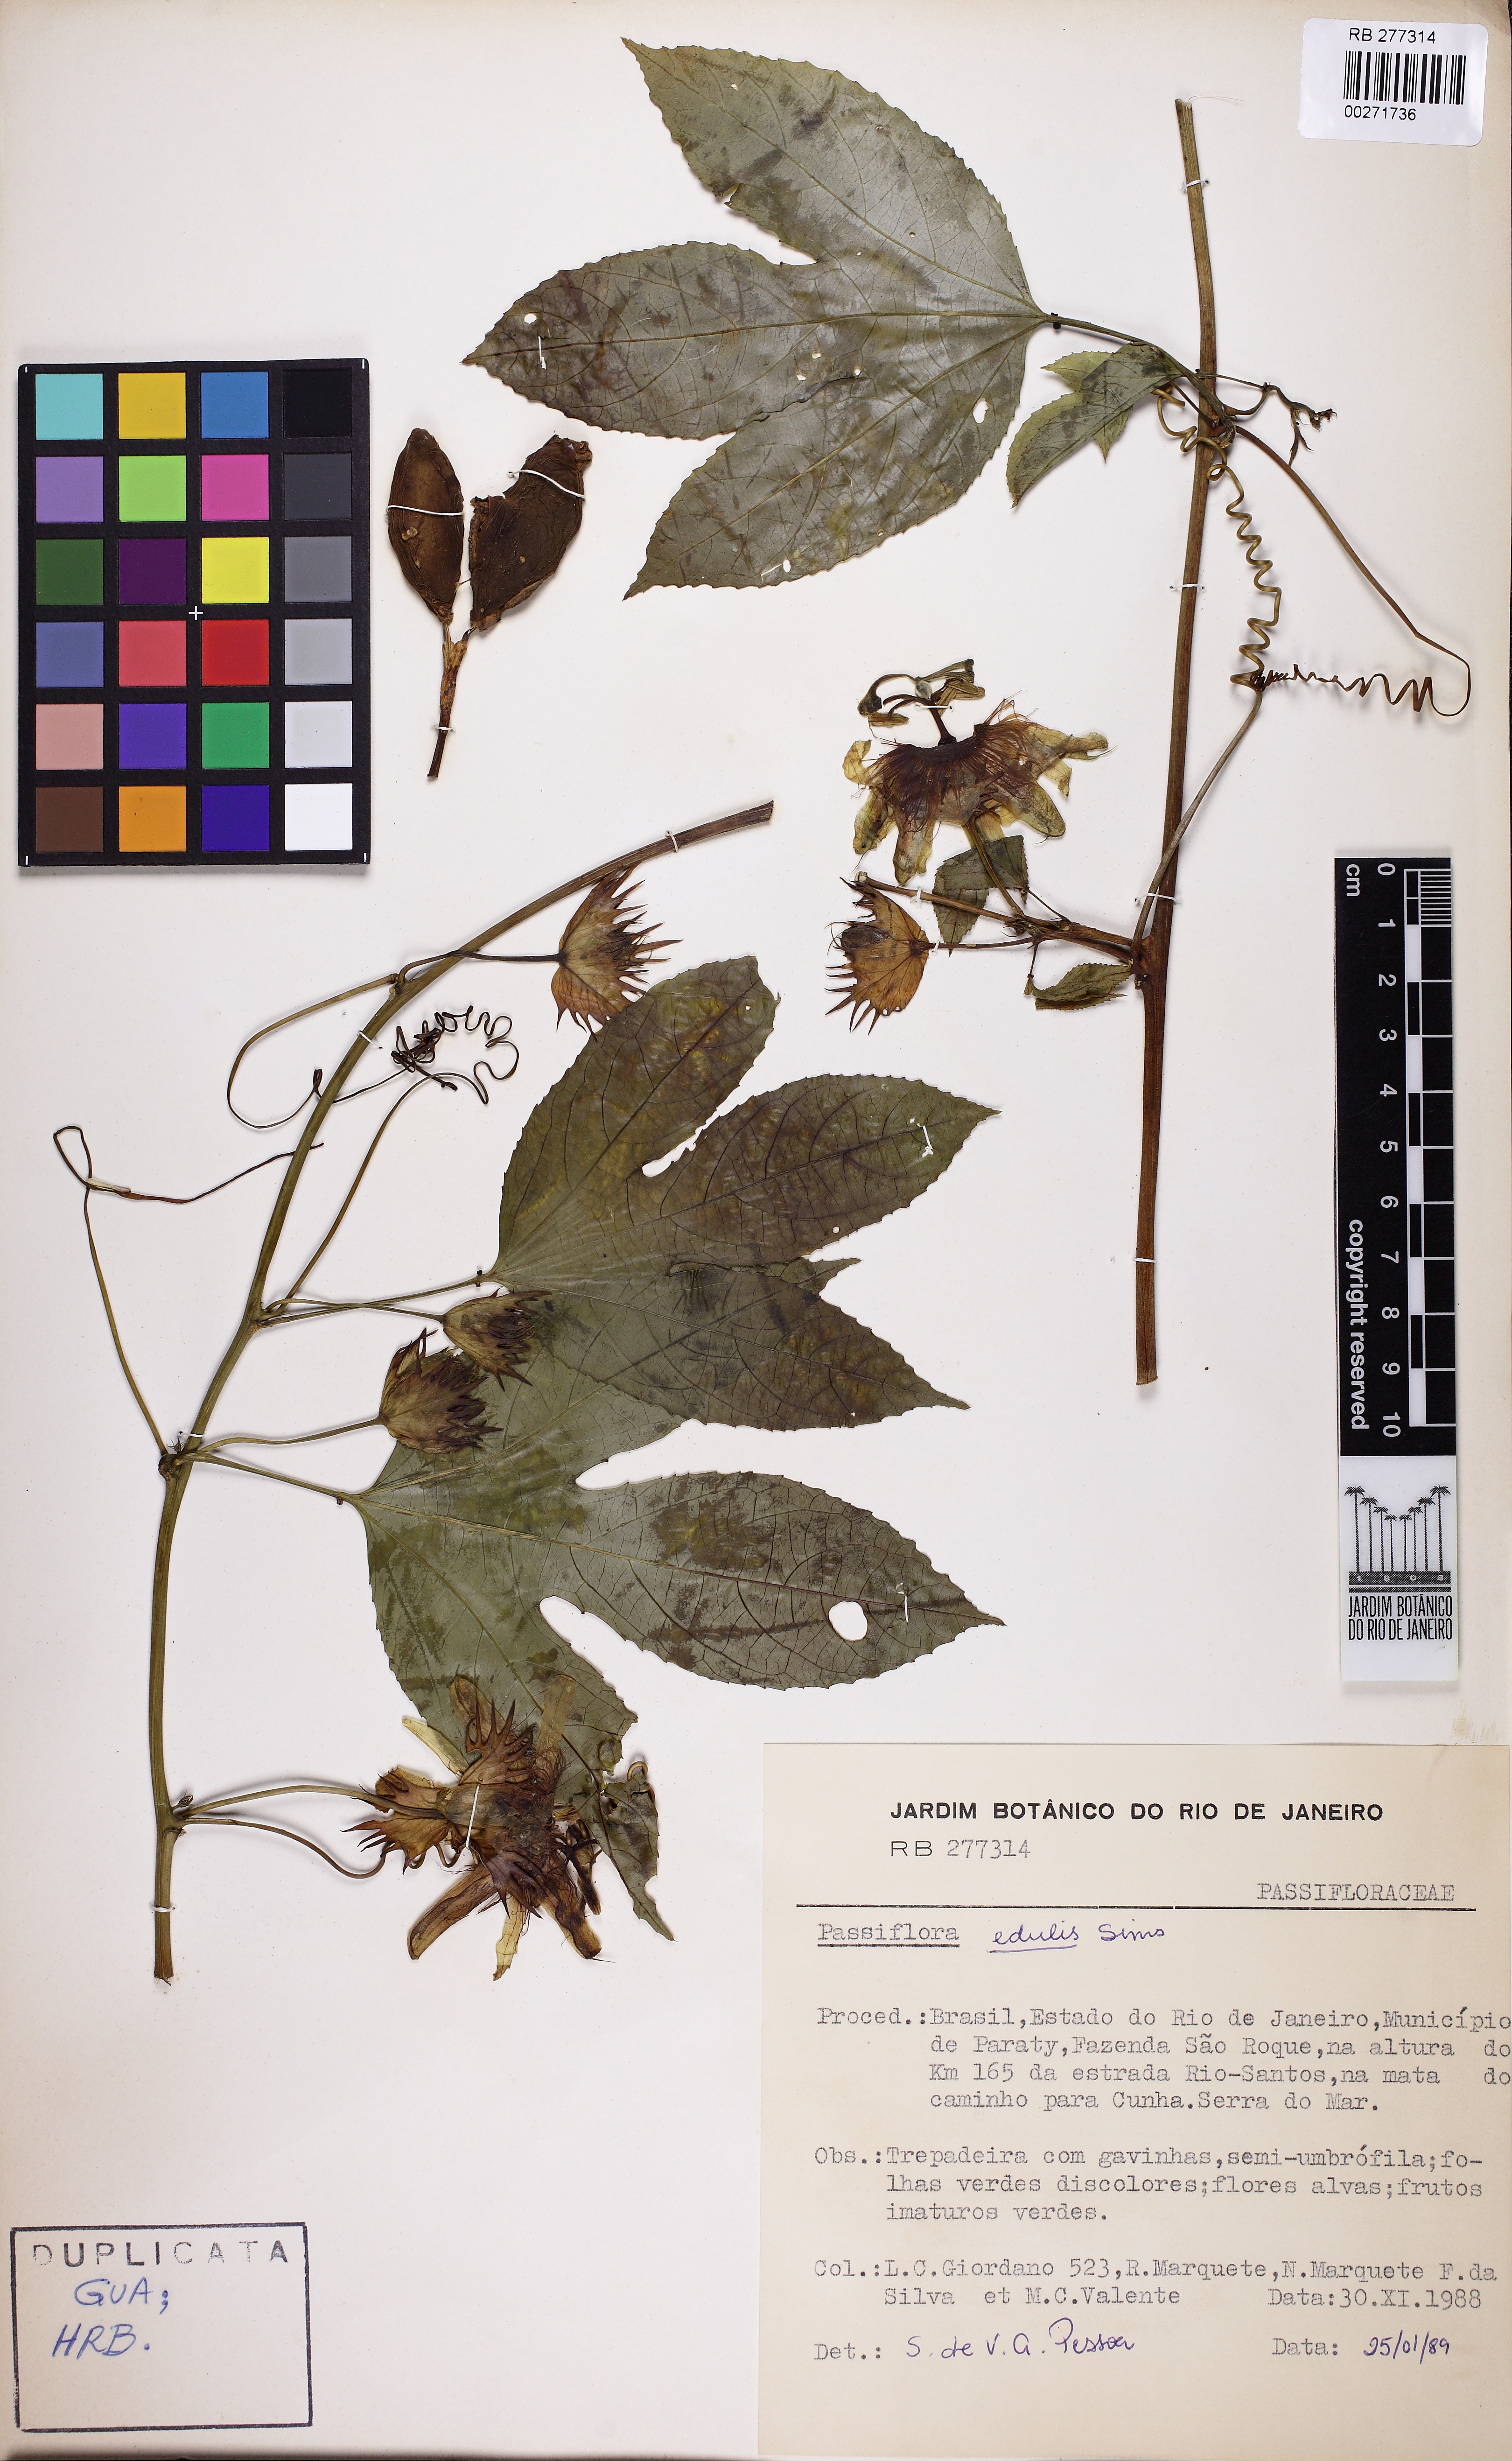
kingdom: Plantae
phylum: Tracheophyta
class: Magnoliopsida
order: Malpighiales
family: Passifloraceae
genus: Passiflora
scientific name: Passiflora edulis
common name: Purple granadilla
